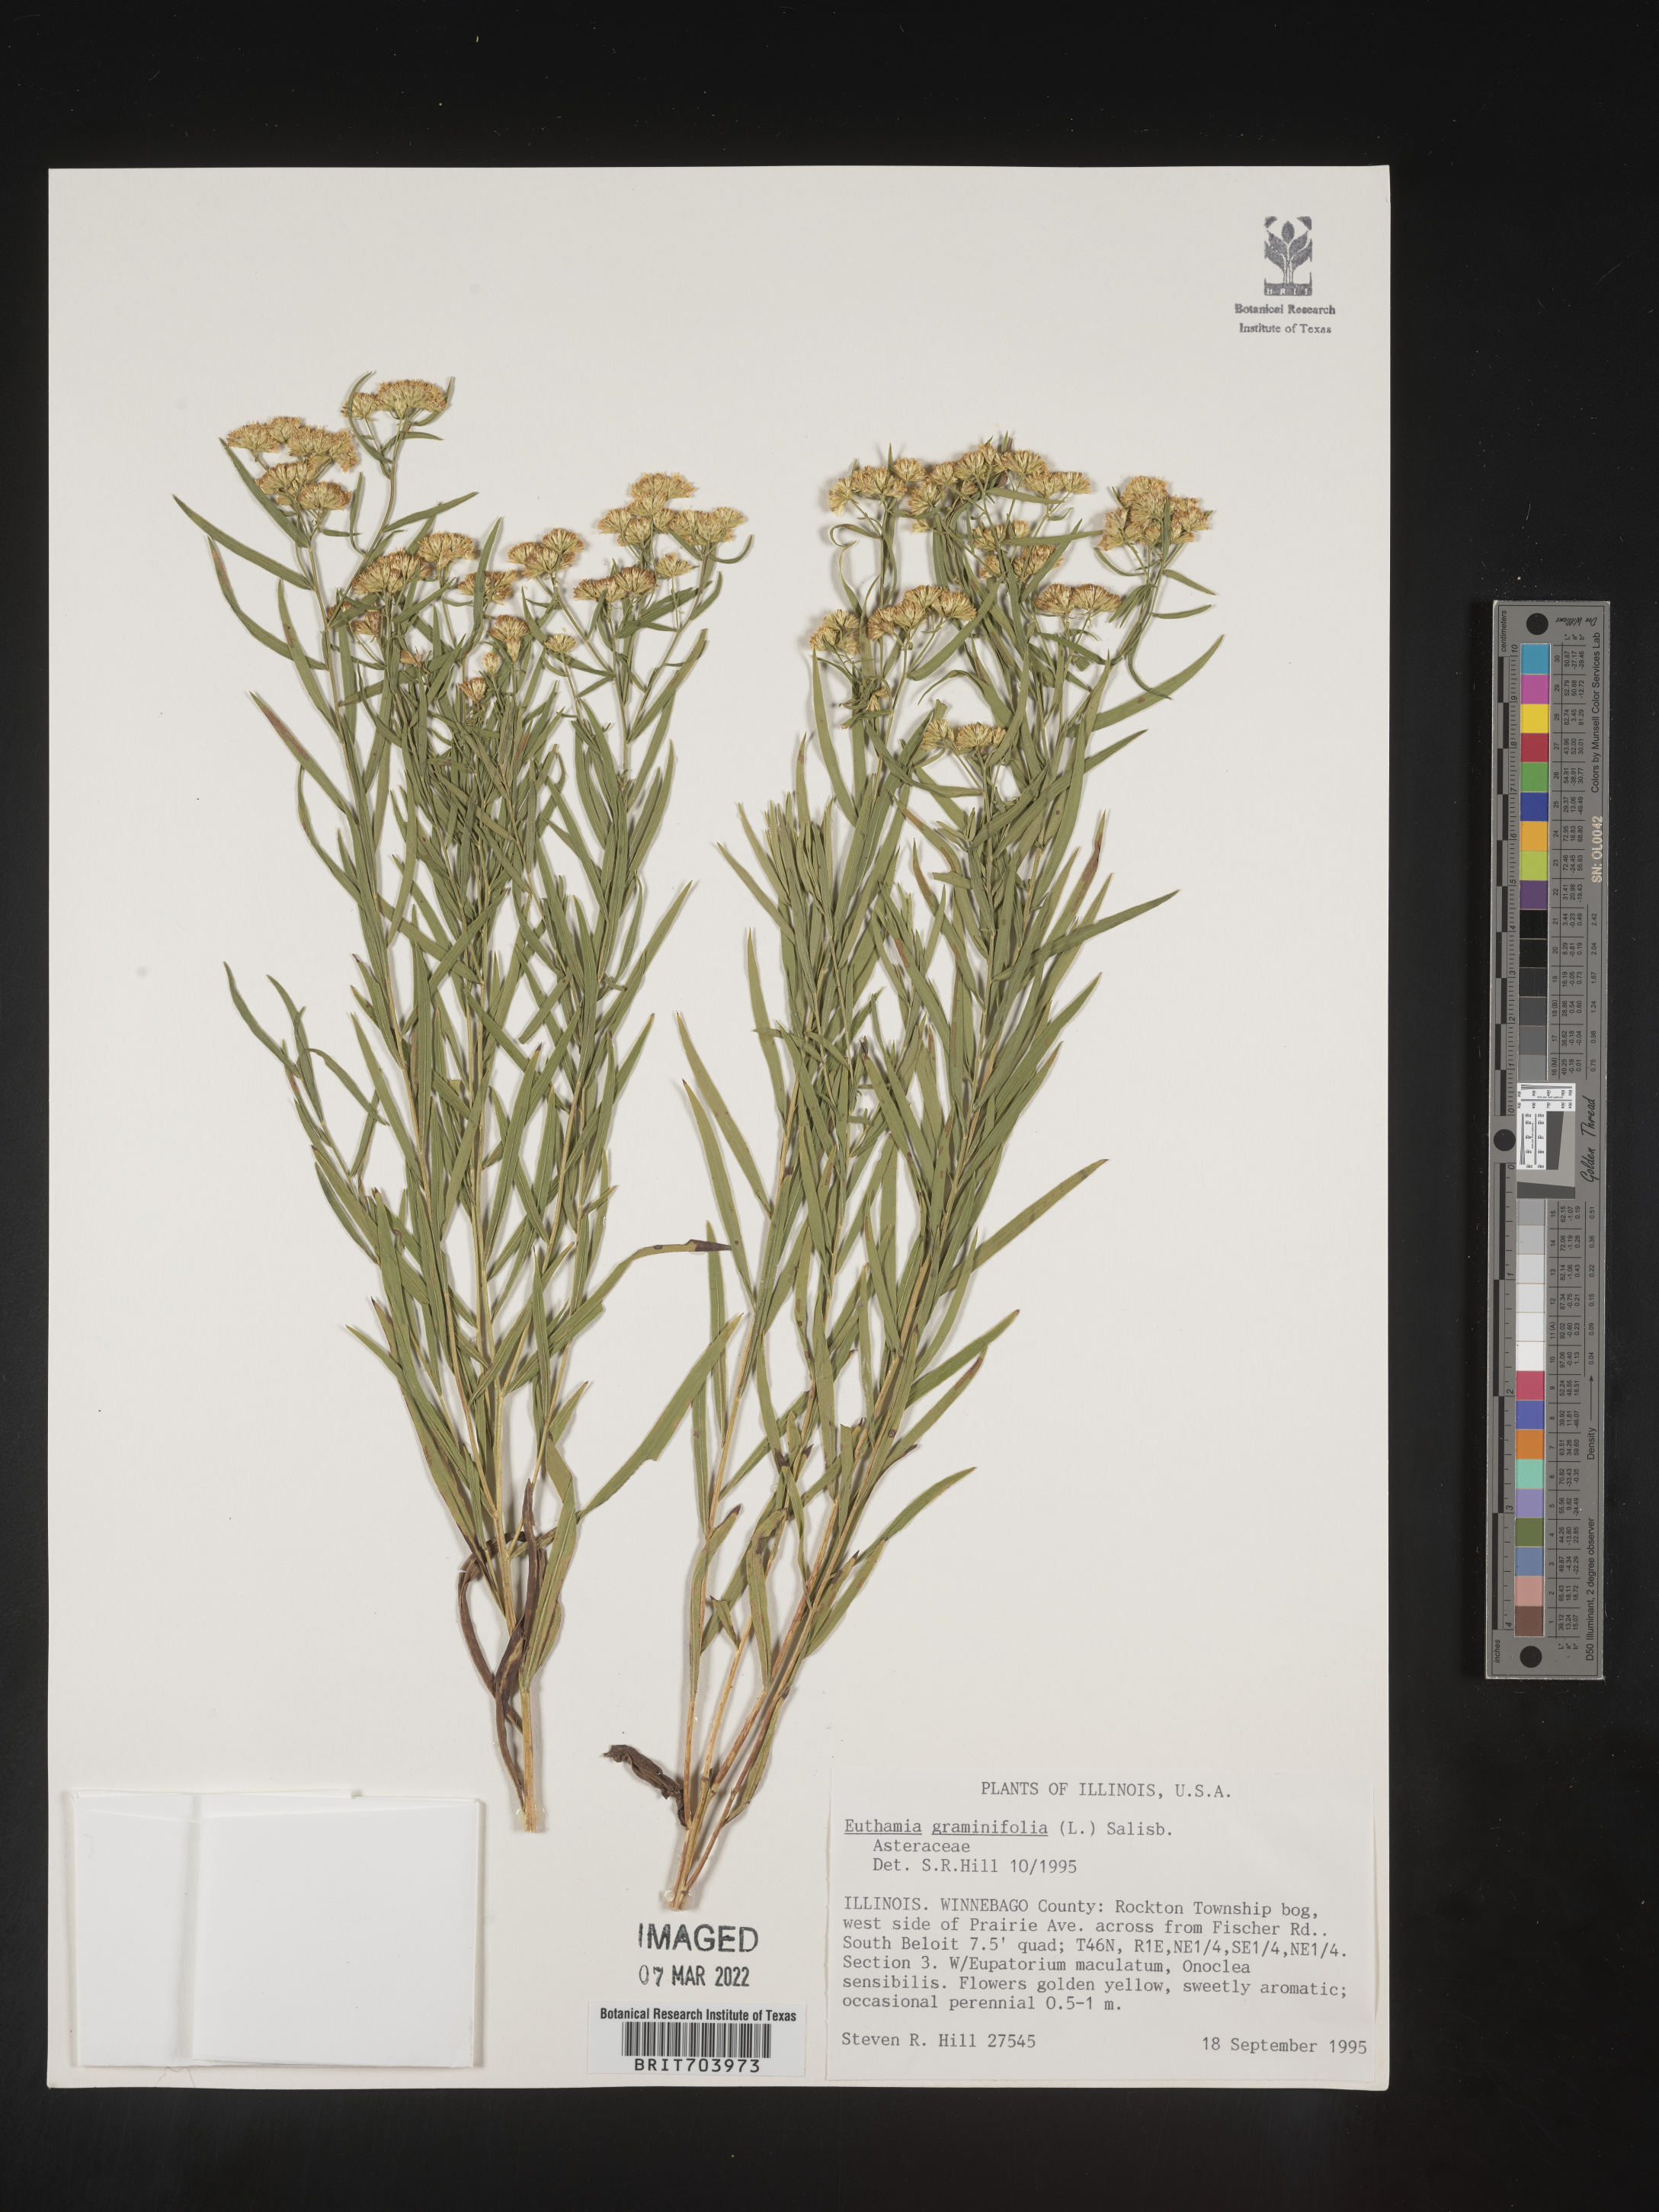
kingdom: Plantae
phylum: Tracheophyta
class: Magnoliopsida
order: Asterales
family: Asteraceae
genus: Euthamia
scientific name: Euthamia graminifolia
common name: Common goldentop
